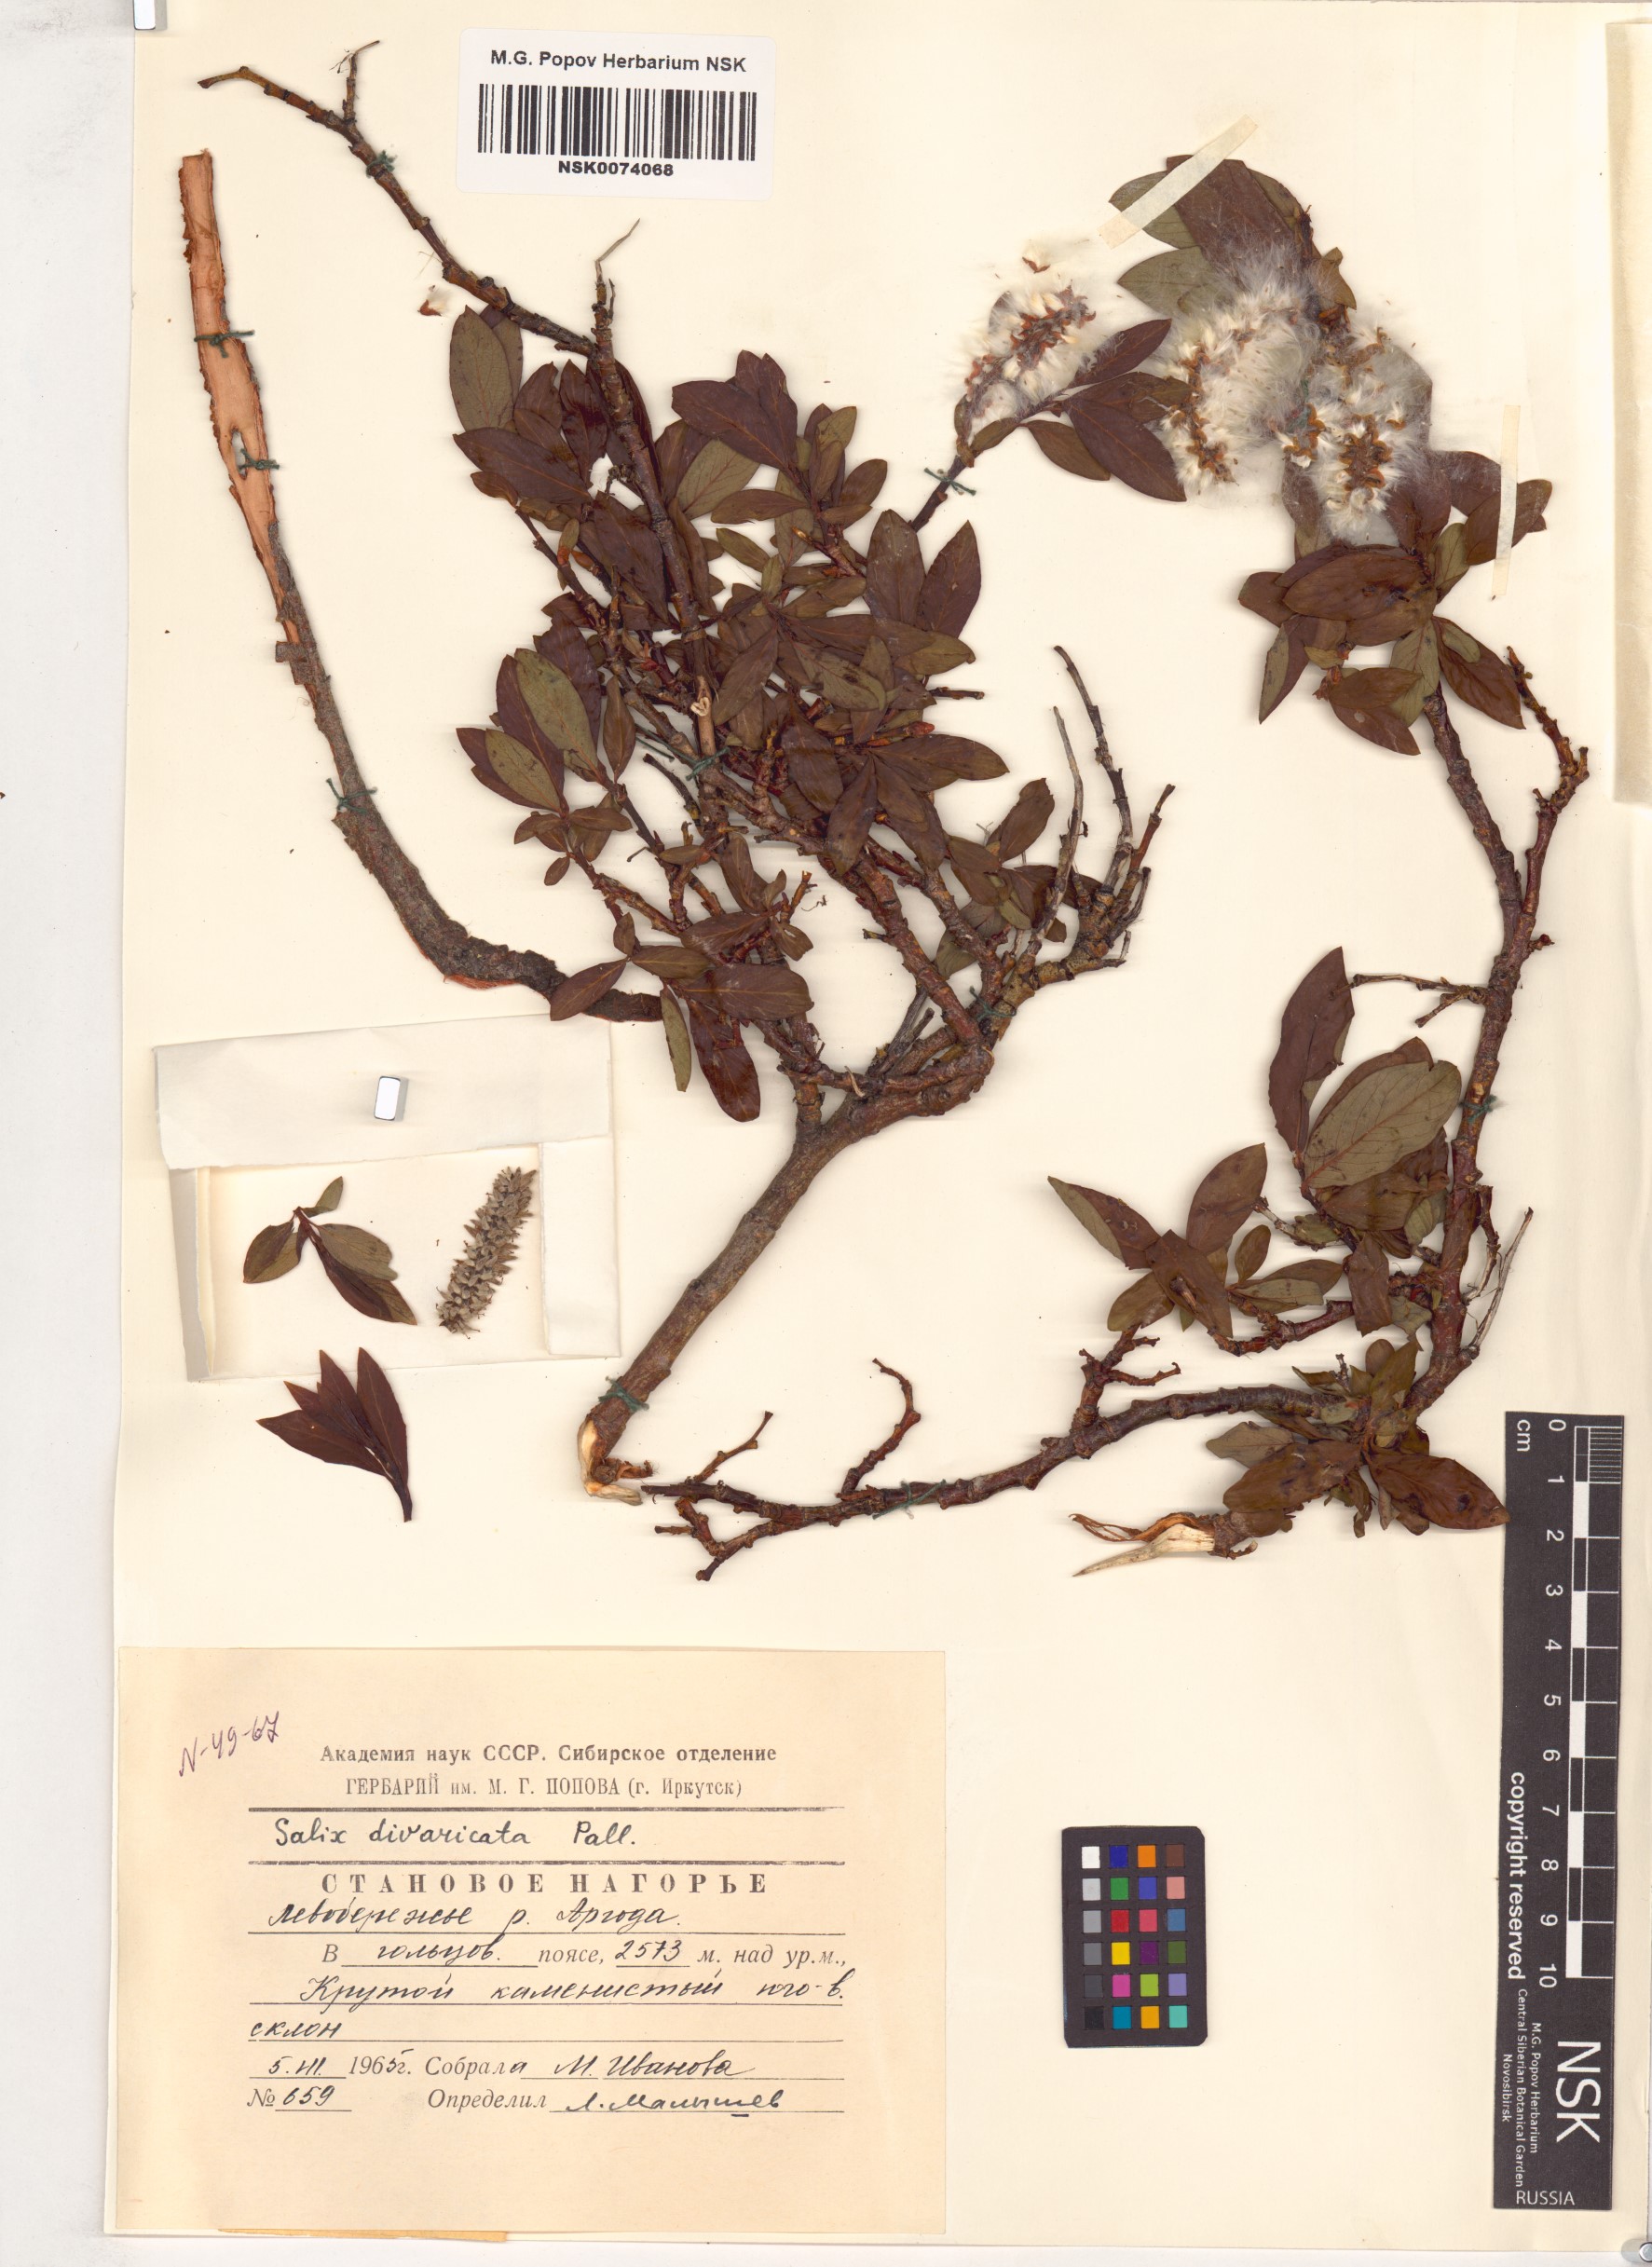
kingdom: Plantae
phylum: Tracheophyta
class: Magnoliopsida
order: Malpighiales
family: Salicaceae
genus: Salix
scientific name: Salix divaricata
